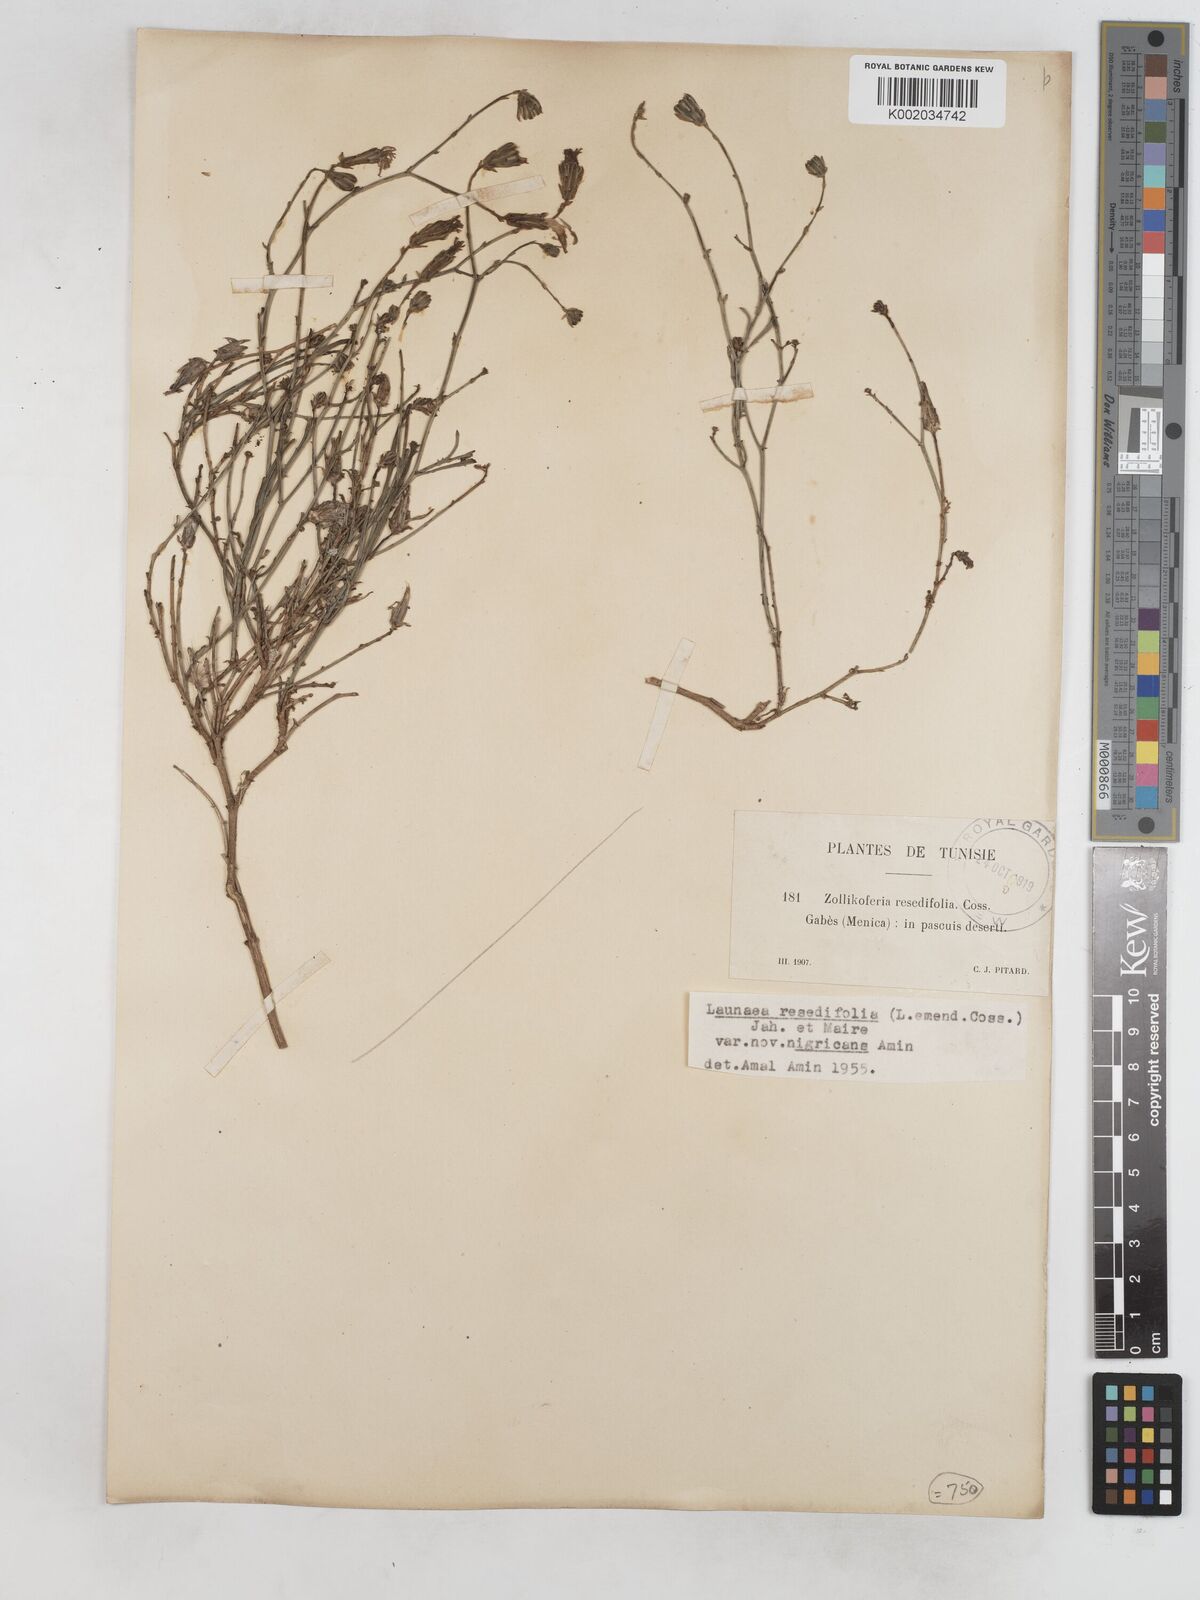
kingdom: Plantae
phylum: Tracheophyta
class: Magnoliopsida
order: Asterales
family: Asteraceae
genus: Launaea
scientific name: Launaea
